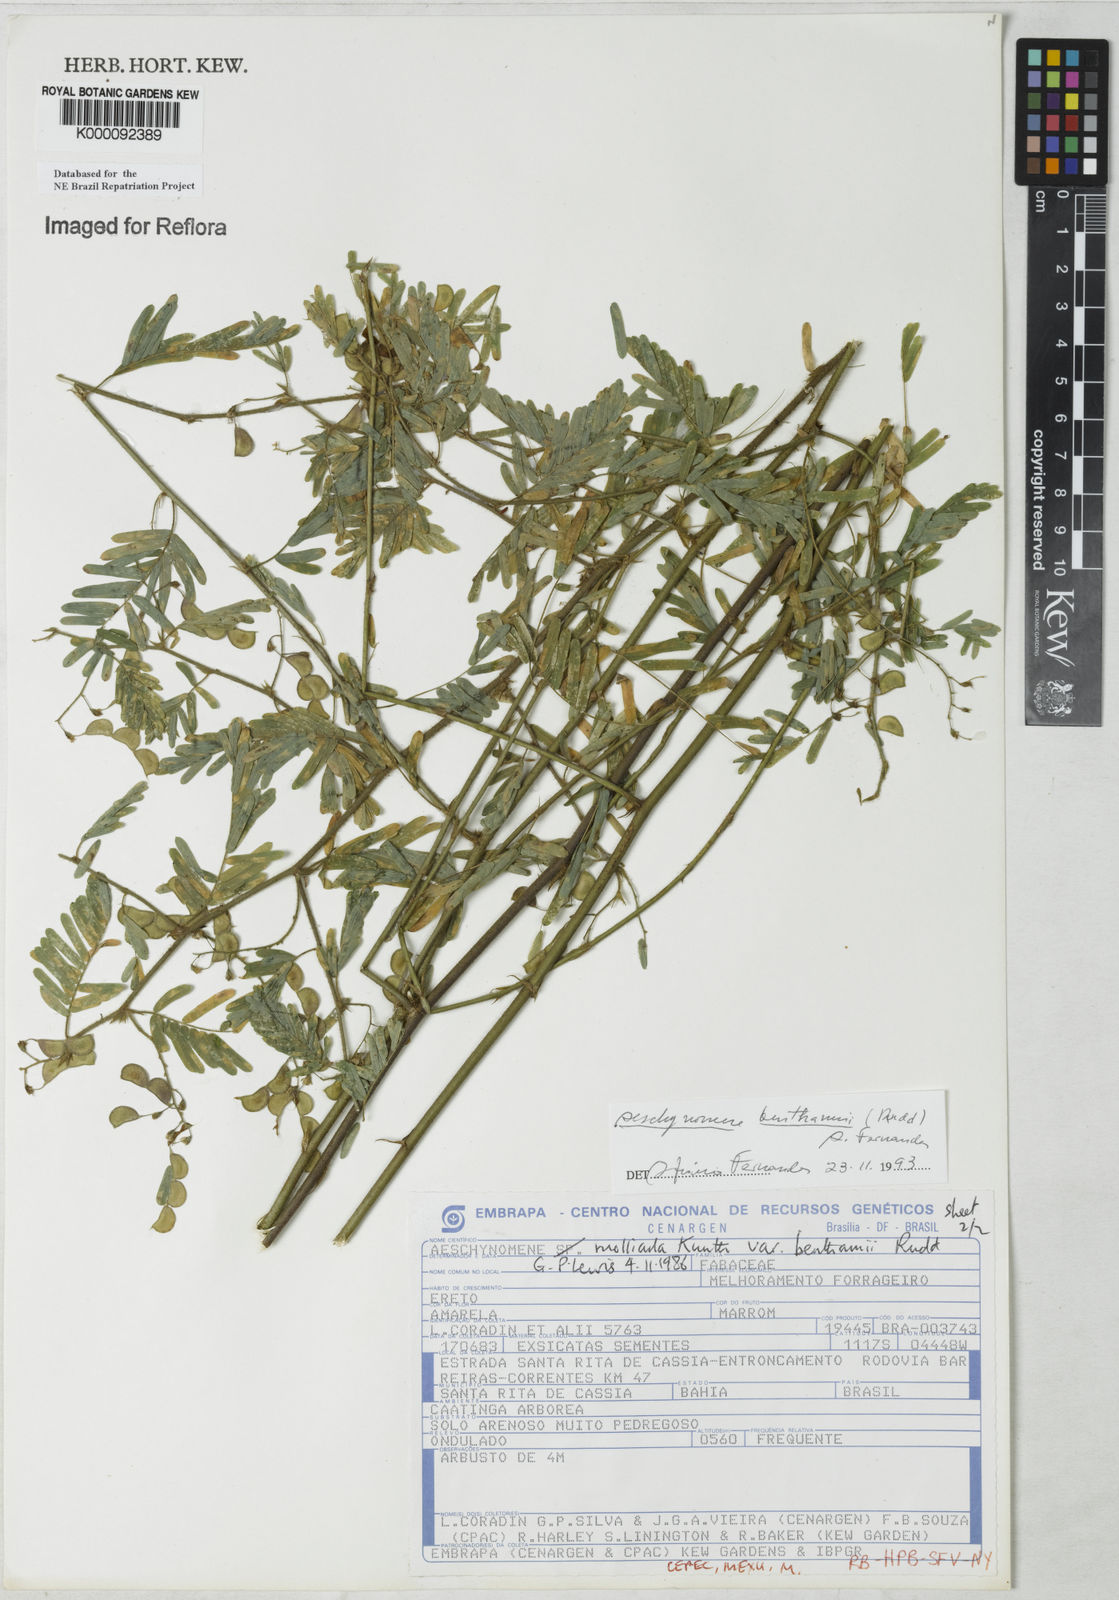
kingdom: Plantae
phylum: Tracheophyta
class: Magnoliopsida
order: Fabales
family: Fabaceae
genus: Aeschynomene
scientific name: Aeschynomene
